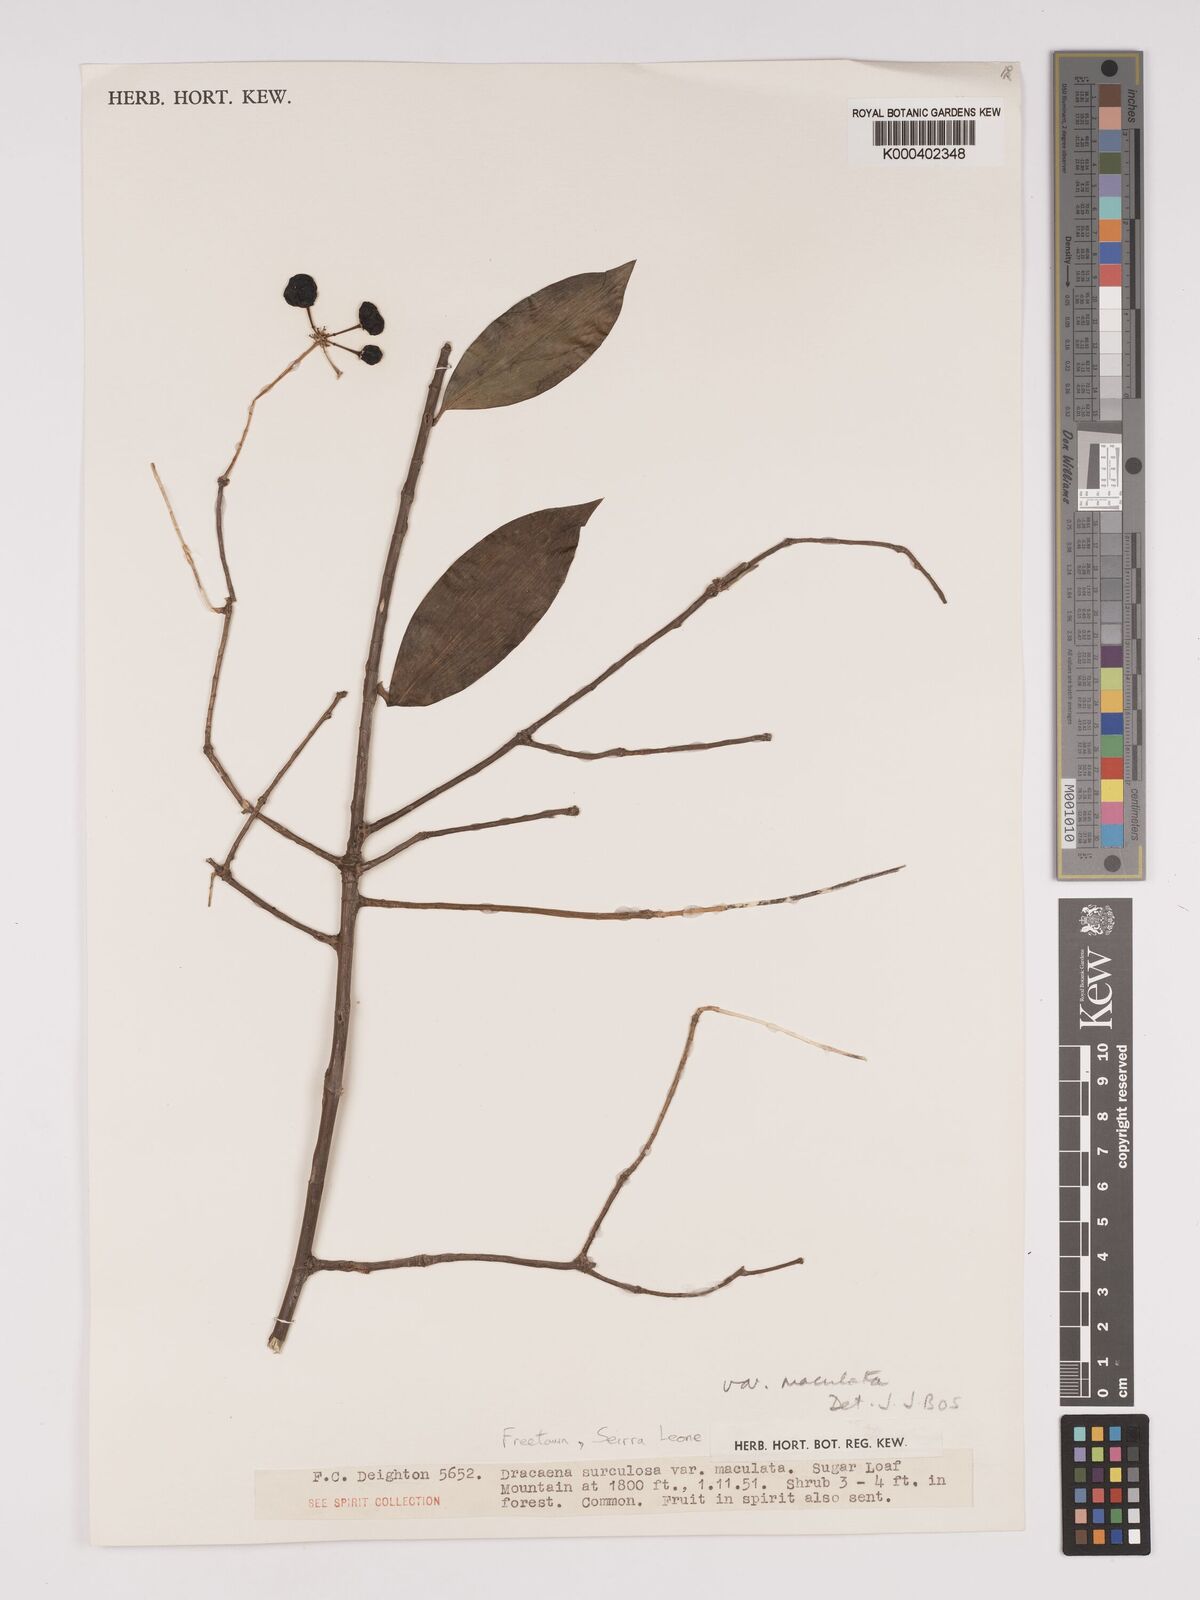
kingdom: Plantae
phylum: Tracheophyta
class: Liliopsida
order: Asparagales
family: Asparagaceae
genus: Dracaena
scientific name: Dracaena surculosa
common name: Spotted dracaena
